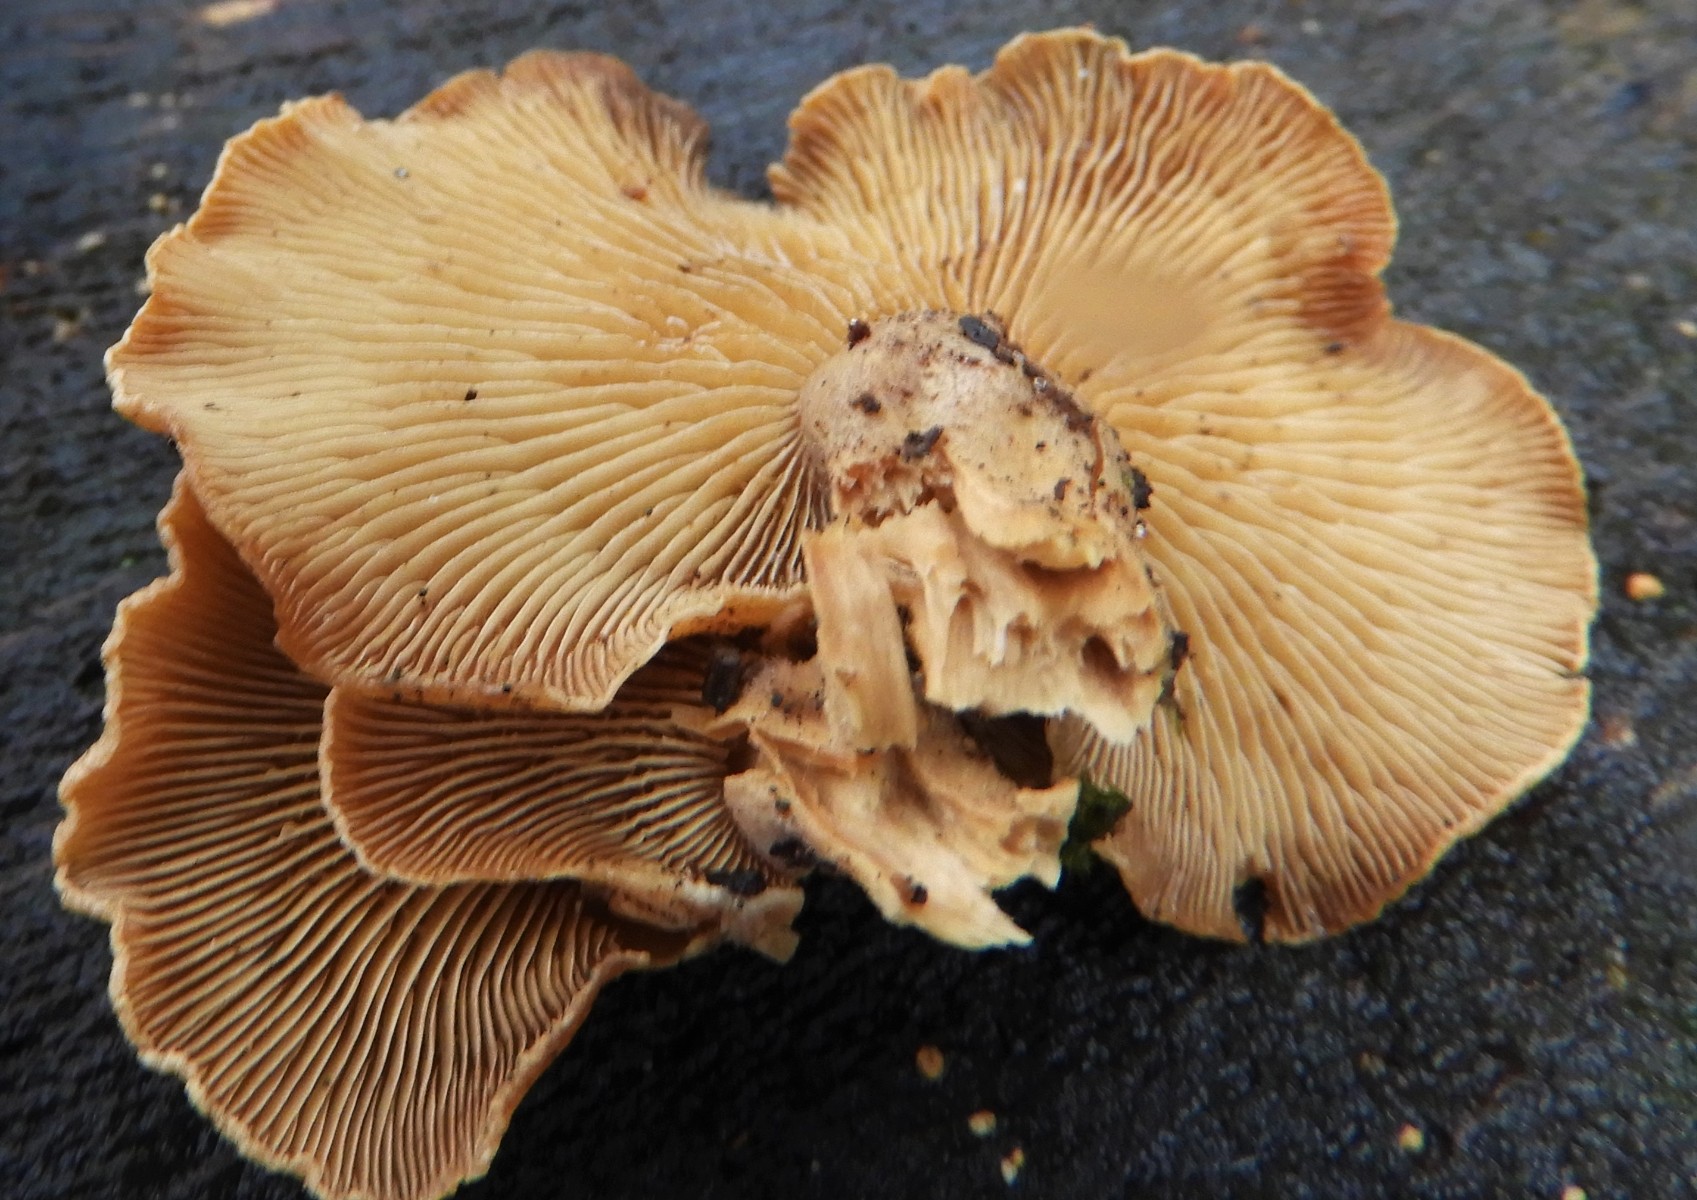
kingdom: Fungi
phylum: Basidiomycota
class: Agaricomycetes
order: Agaricales
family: Mycenaceae
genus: Panellus
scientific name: Panellus stipticus
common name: kliddet epaulethat
